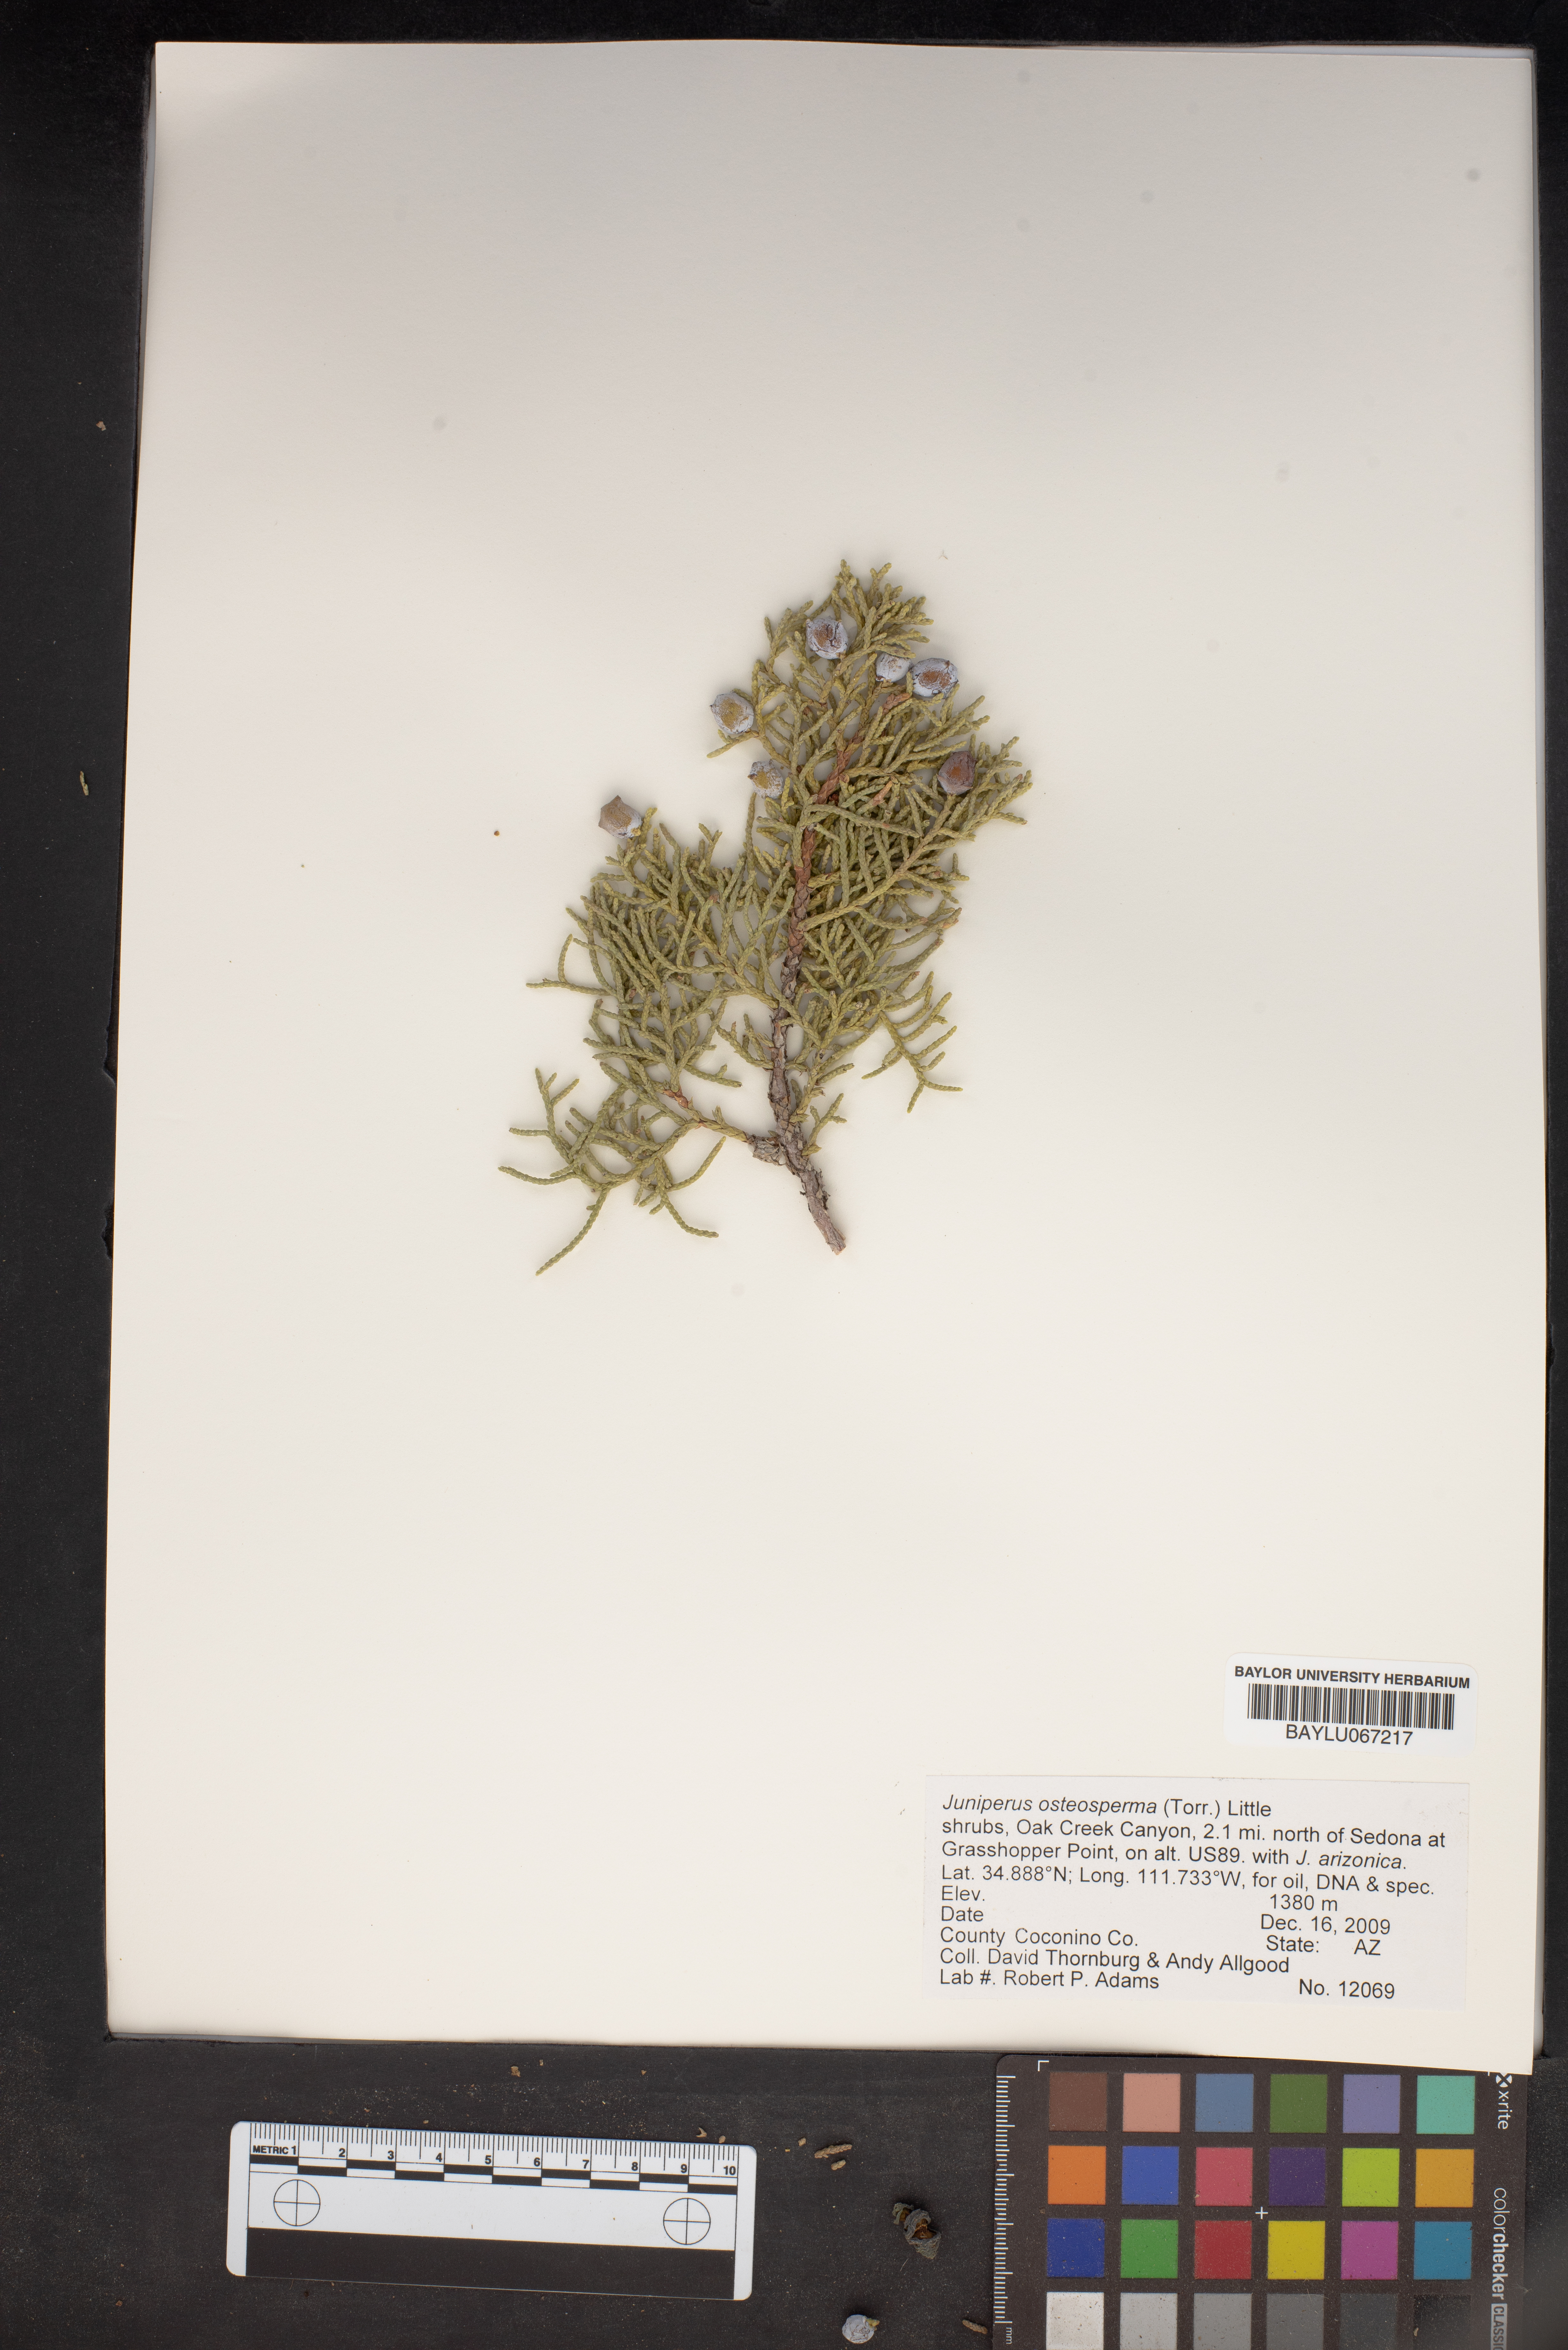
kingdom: Plantae
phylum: Tracheophyta
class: Pinopsida
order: Pinales
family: Cupressaceae
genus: Juniperus
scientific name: Juniperus osteosperma
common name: Utah juniper
